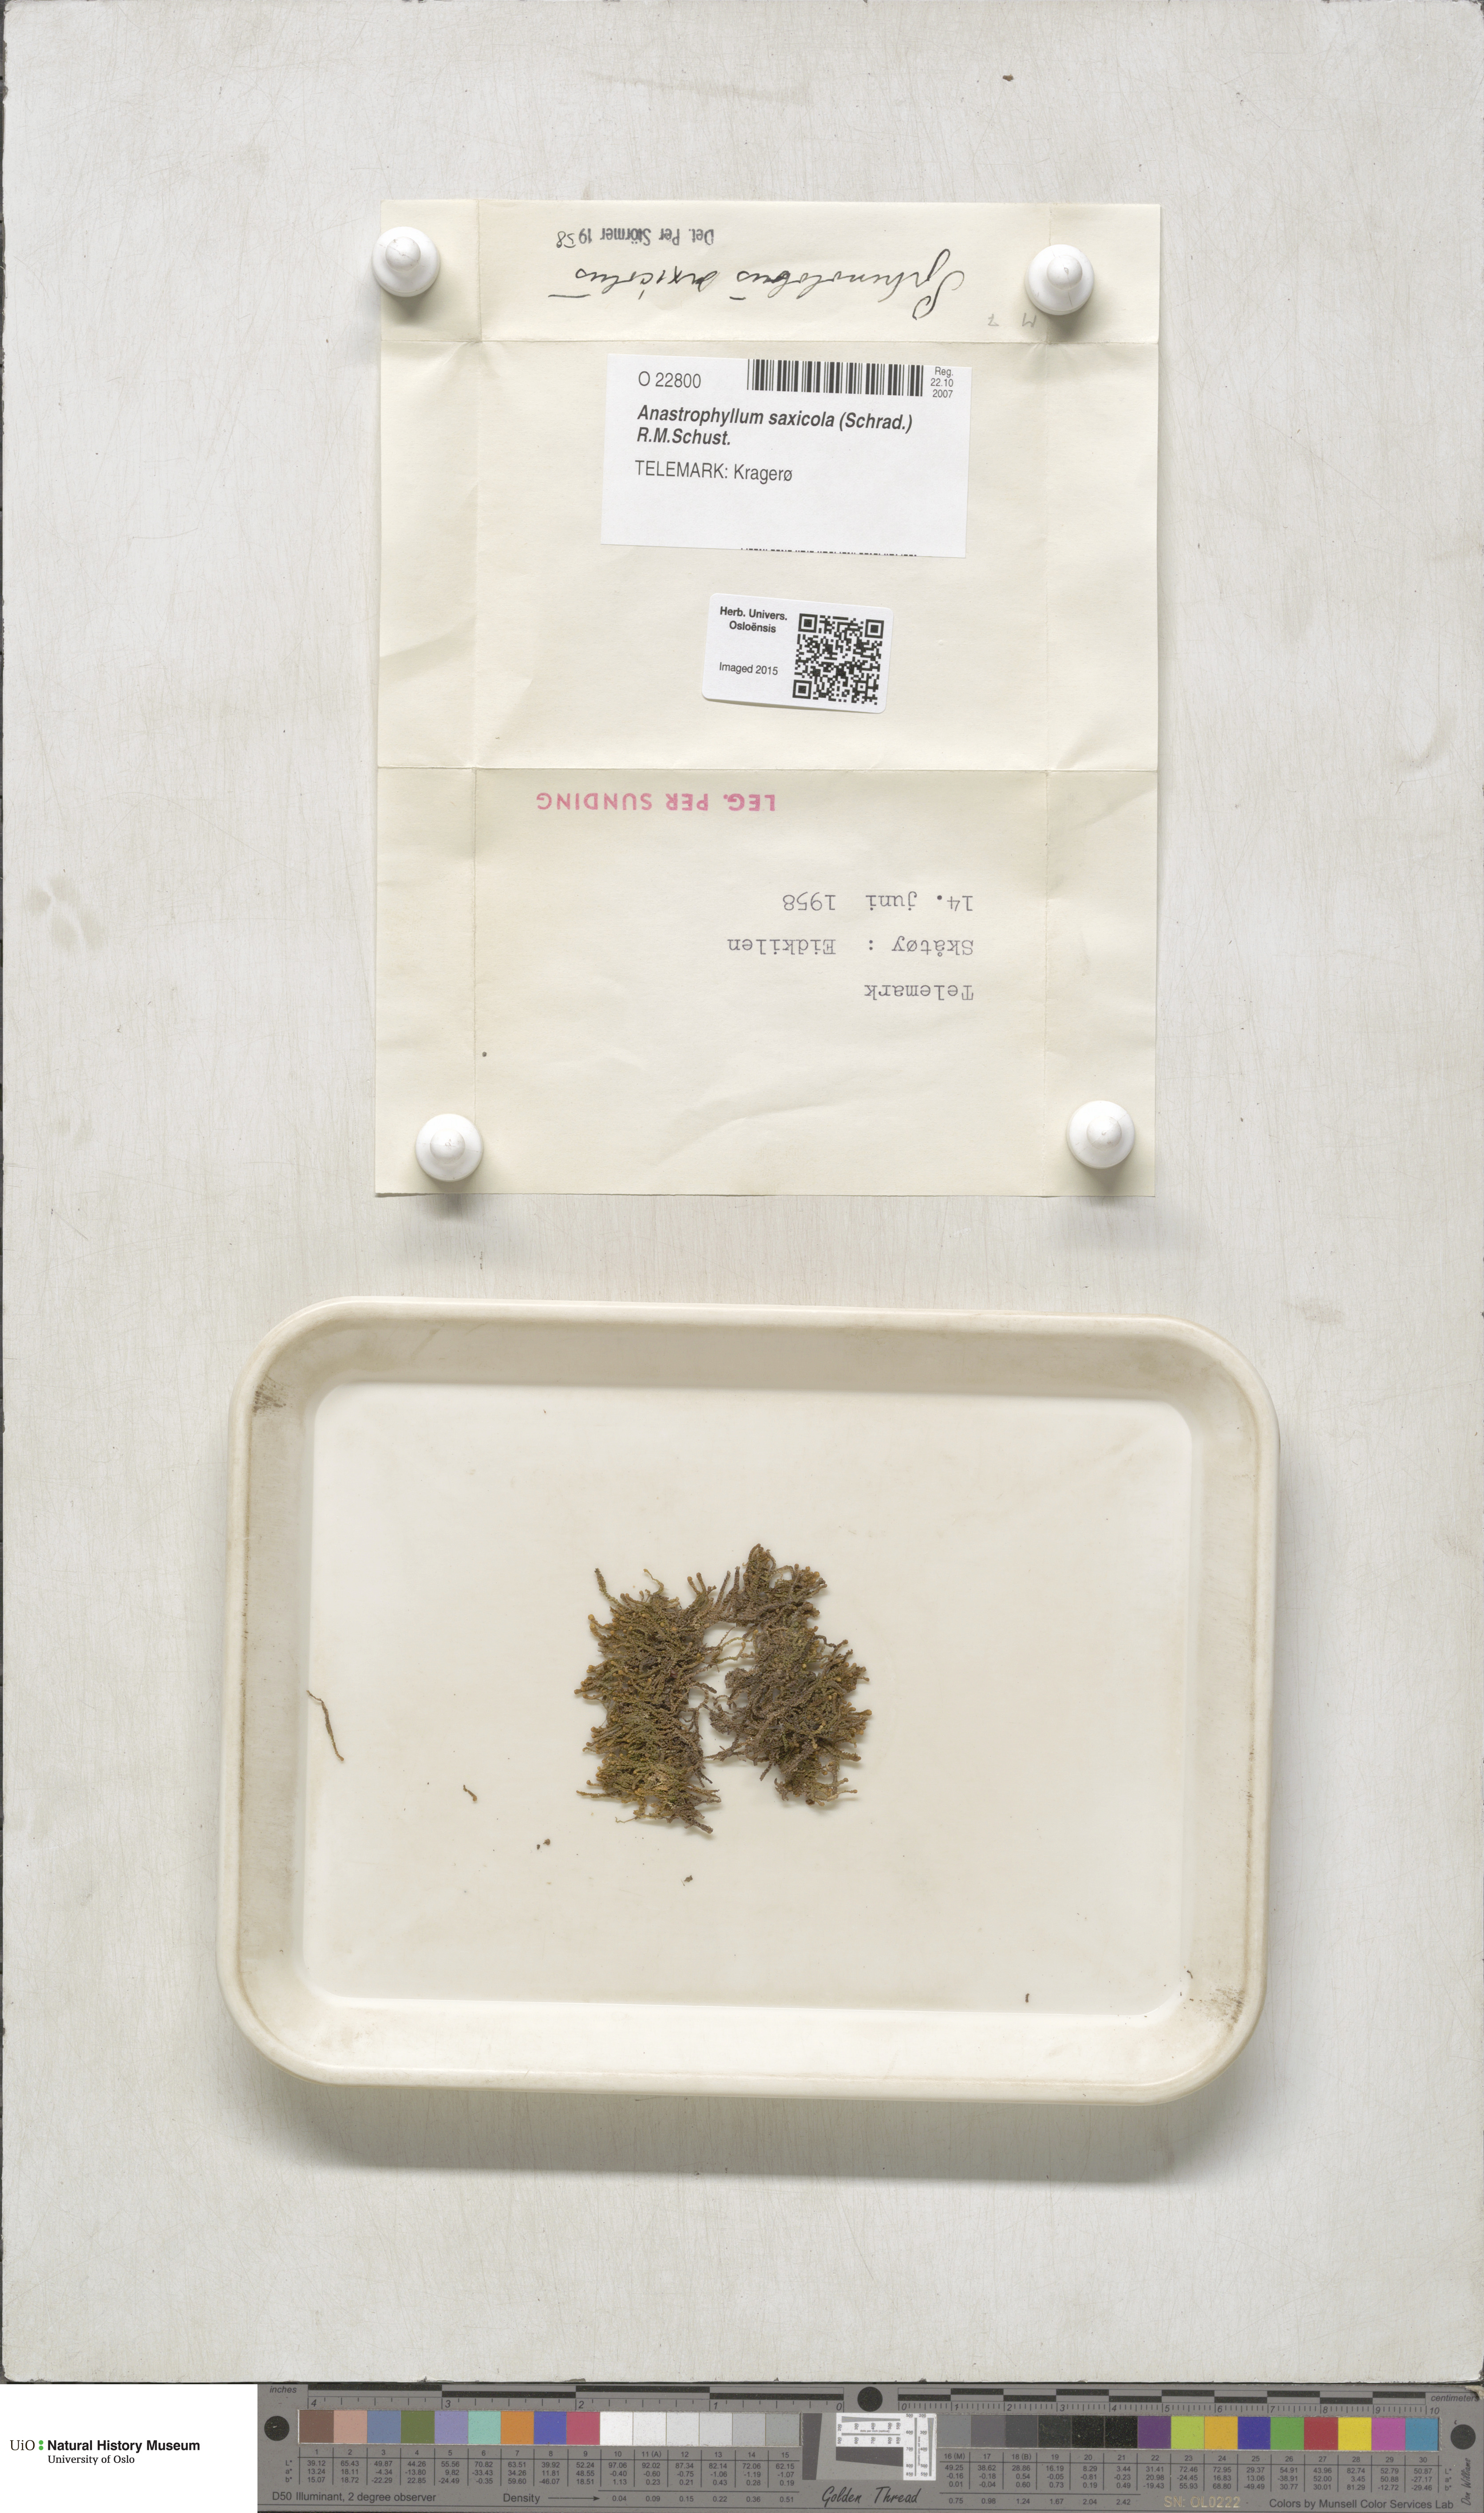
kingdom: Plantae
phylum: Marchantiophyta
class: Jungermanniopsida
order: Jungermanniales
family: Anastrophyllaceae
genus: Sphenolobus
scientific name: Sphenolobus saxicola
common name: Curled notchwort
